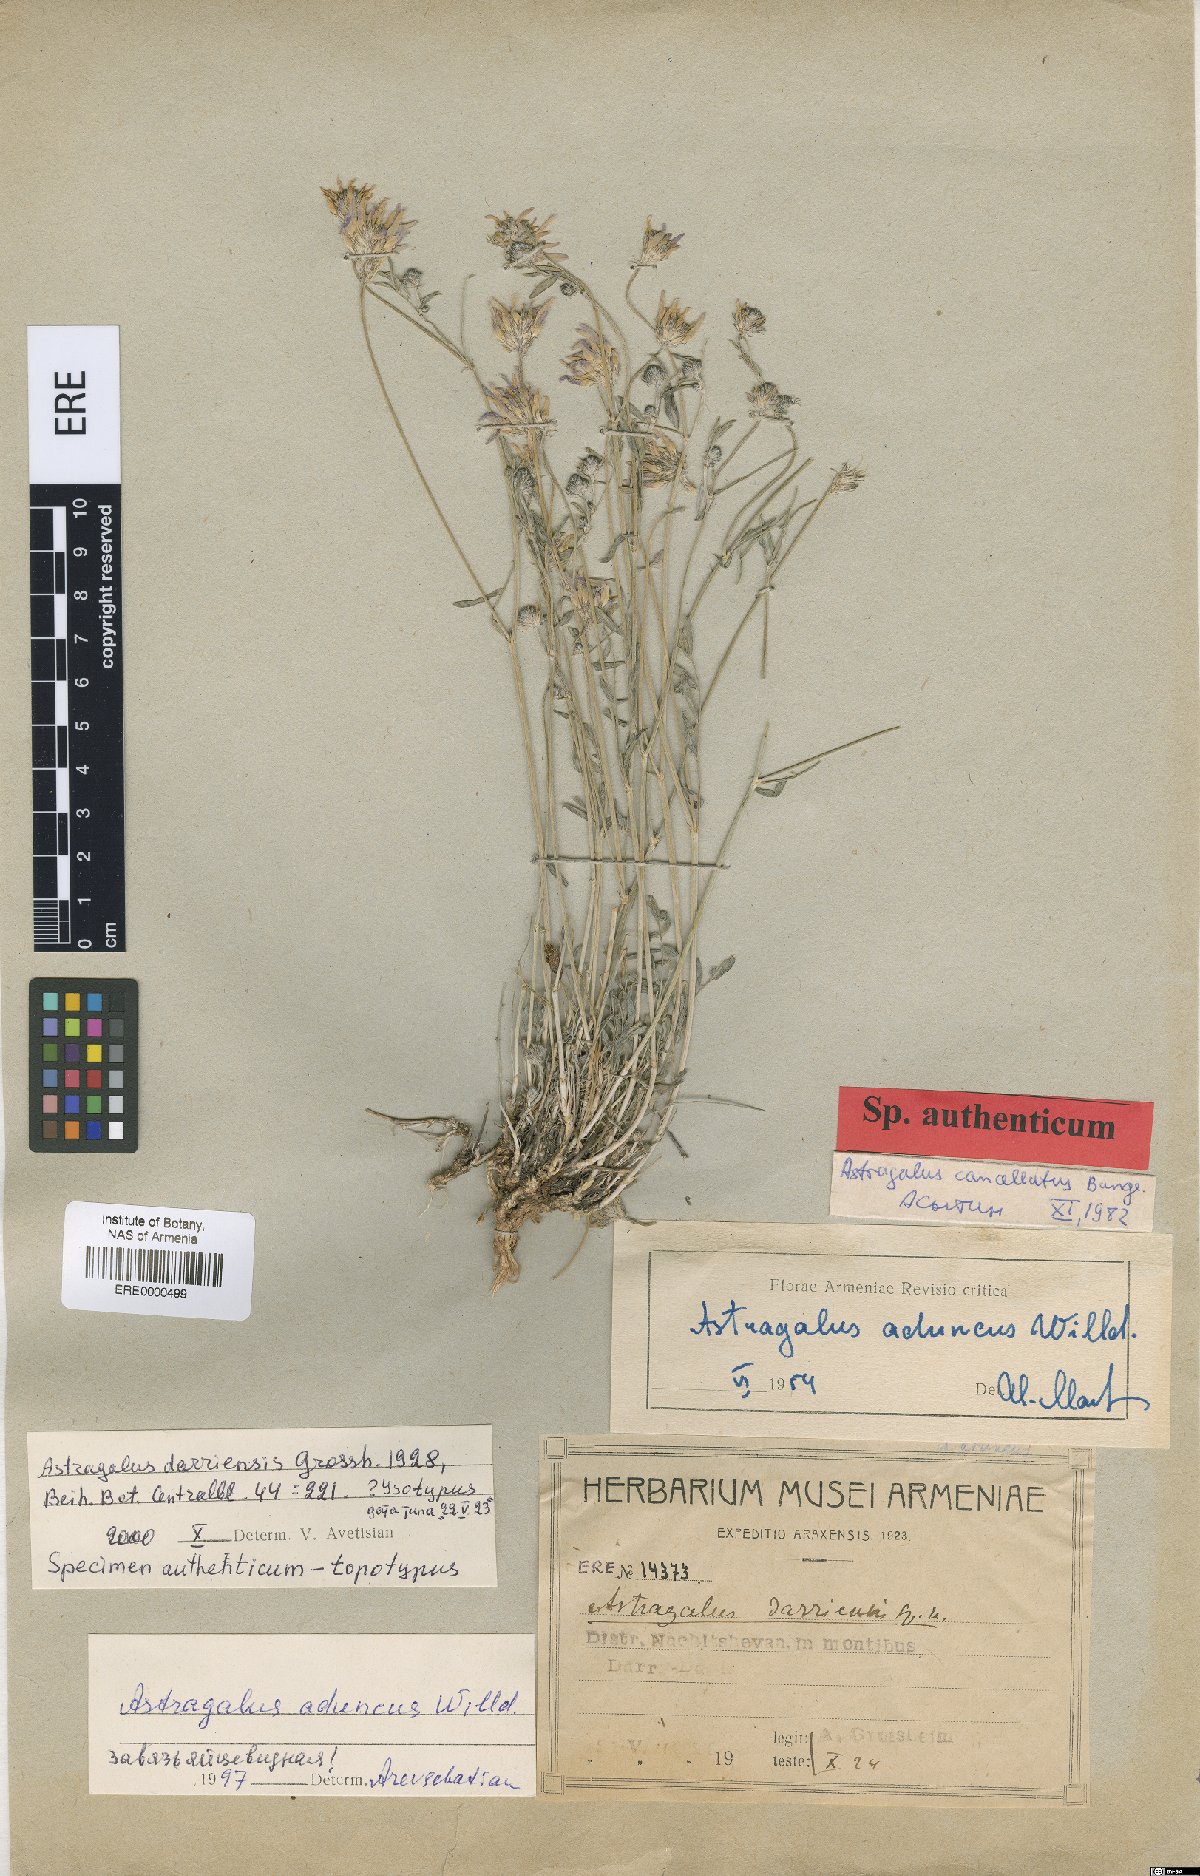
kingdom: Plantae
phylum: Tracheophyta
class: Magnoliopsida
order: Fabales
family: Fabaceae
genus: Astragalus
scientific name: Astragalus cancellatus
